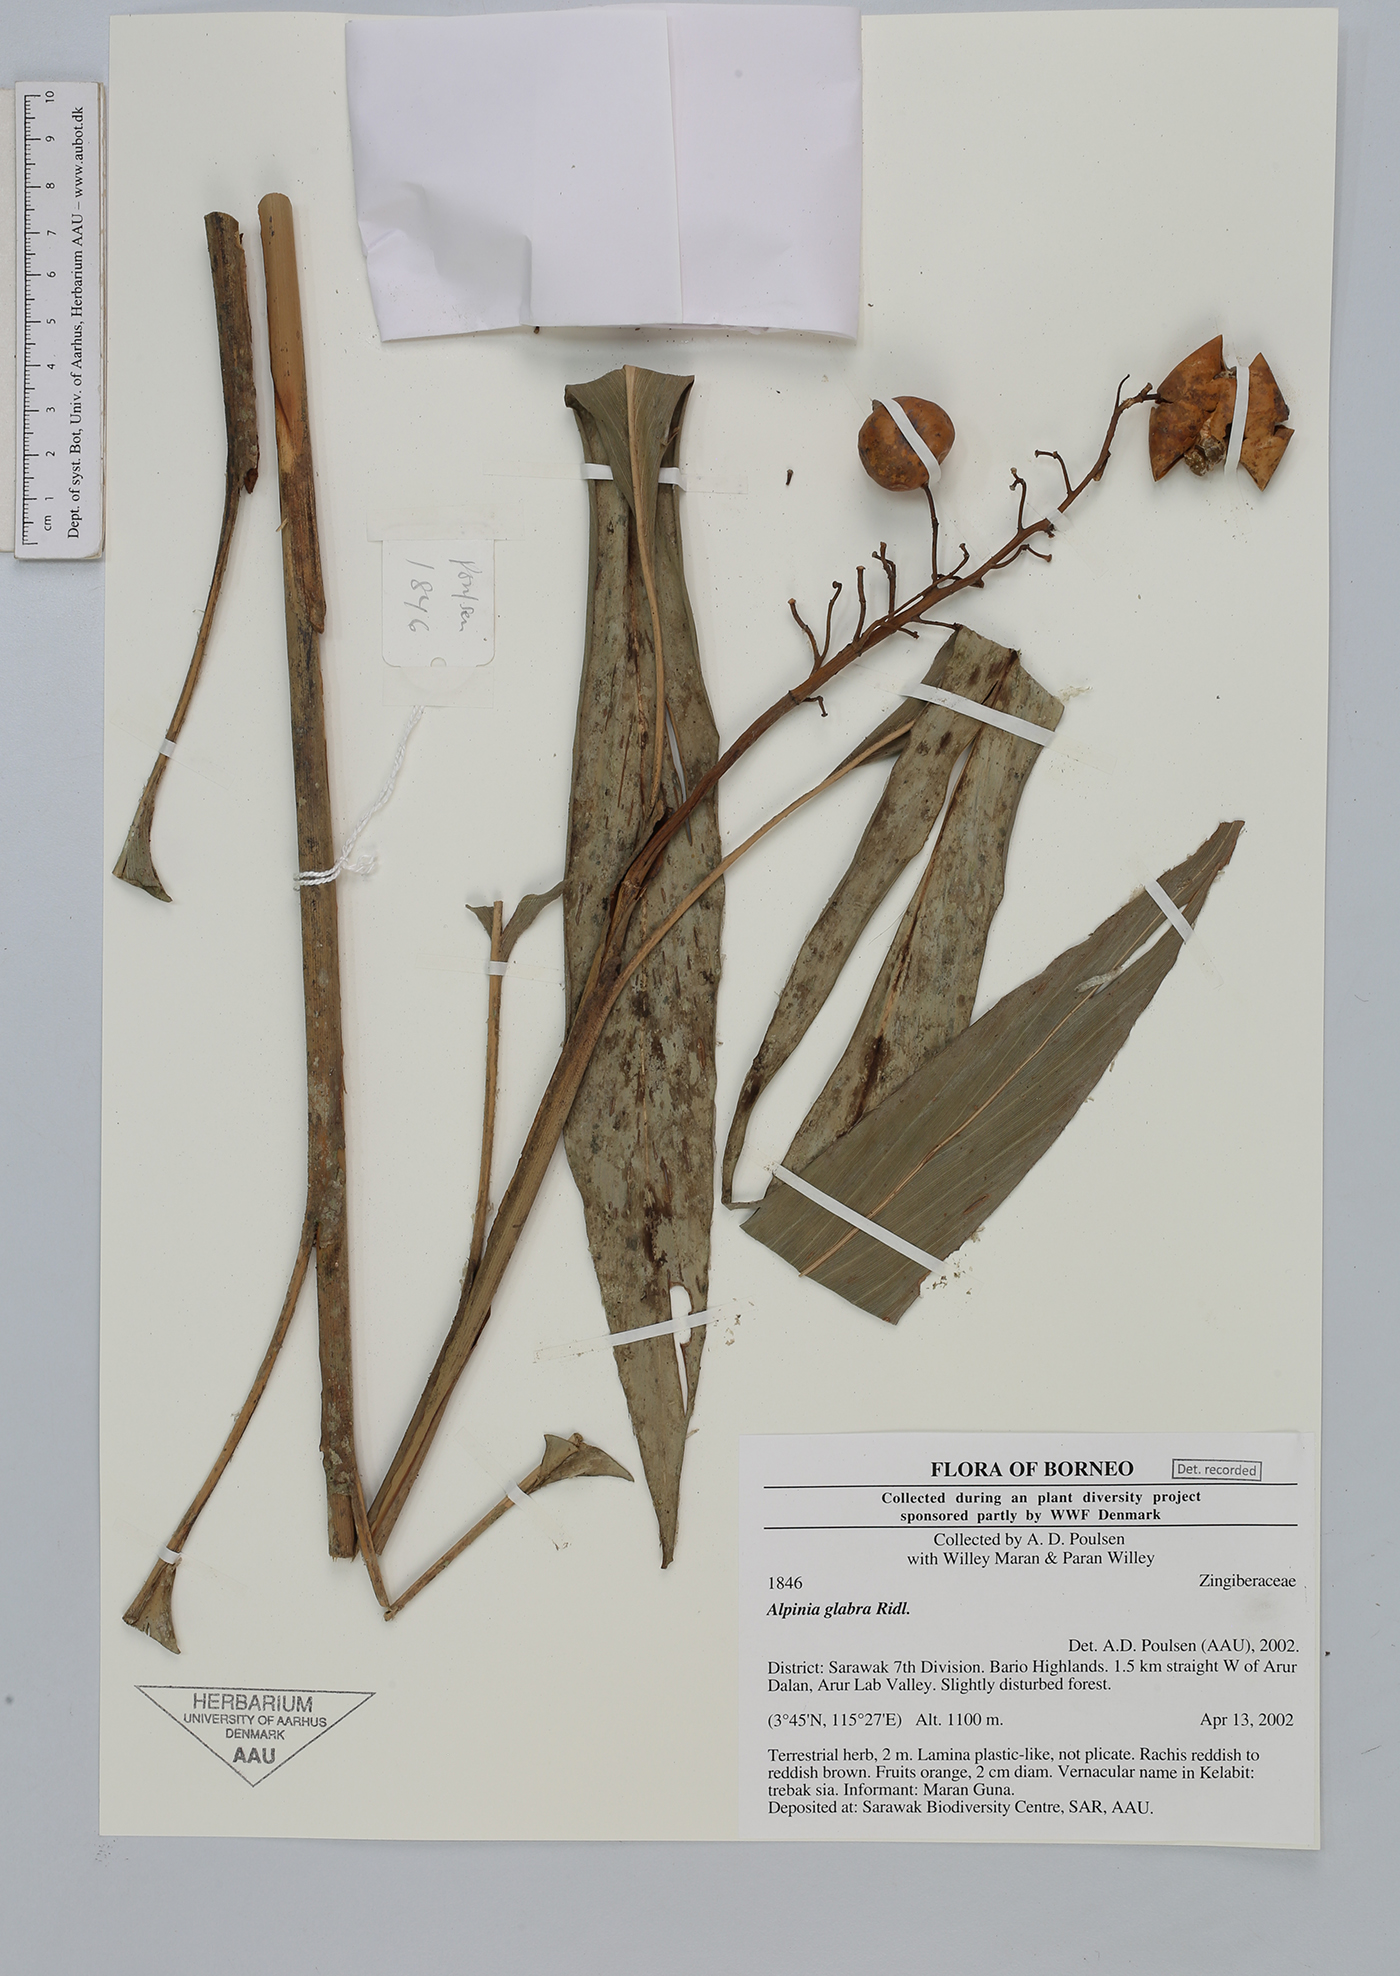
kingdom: Plantae
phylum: Tracheophyta
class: Liliopsida
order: Zingiberales
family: Zingiberaceae
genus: Alpinia
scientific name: Alpinia glabra
